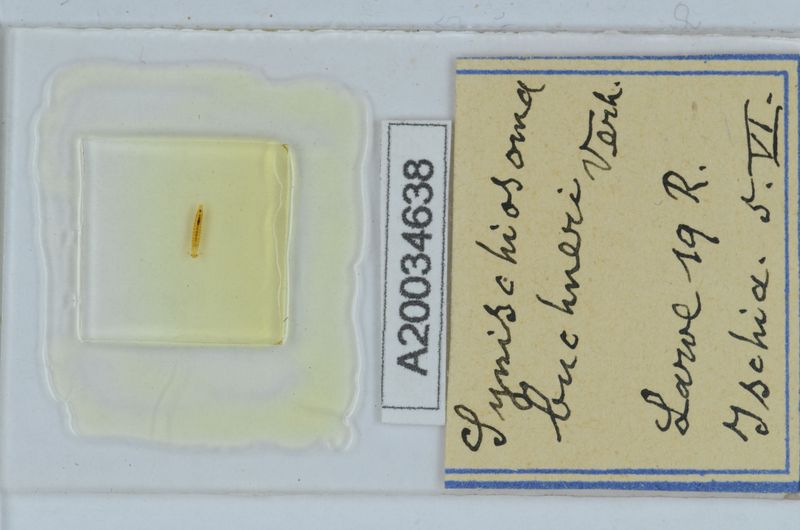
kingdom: Animalia
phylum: Arthropoda
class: Diplopoda
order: Chordeumatida
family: Craspedosomatidae
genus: Synischiosoma
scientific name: Synischiosoma buchneri
